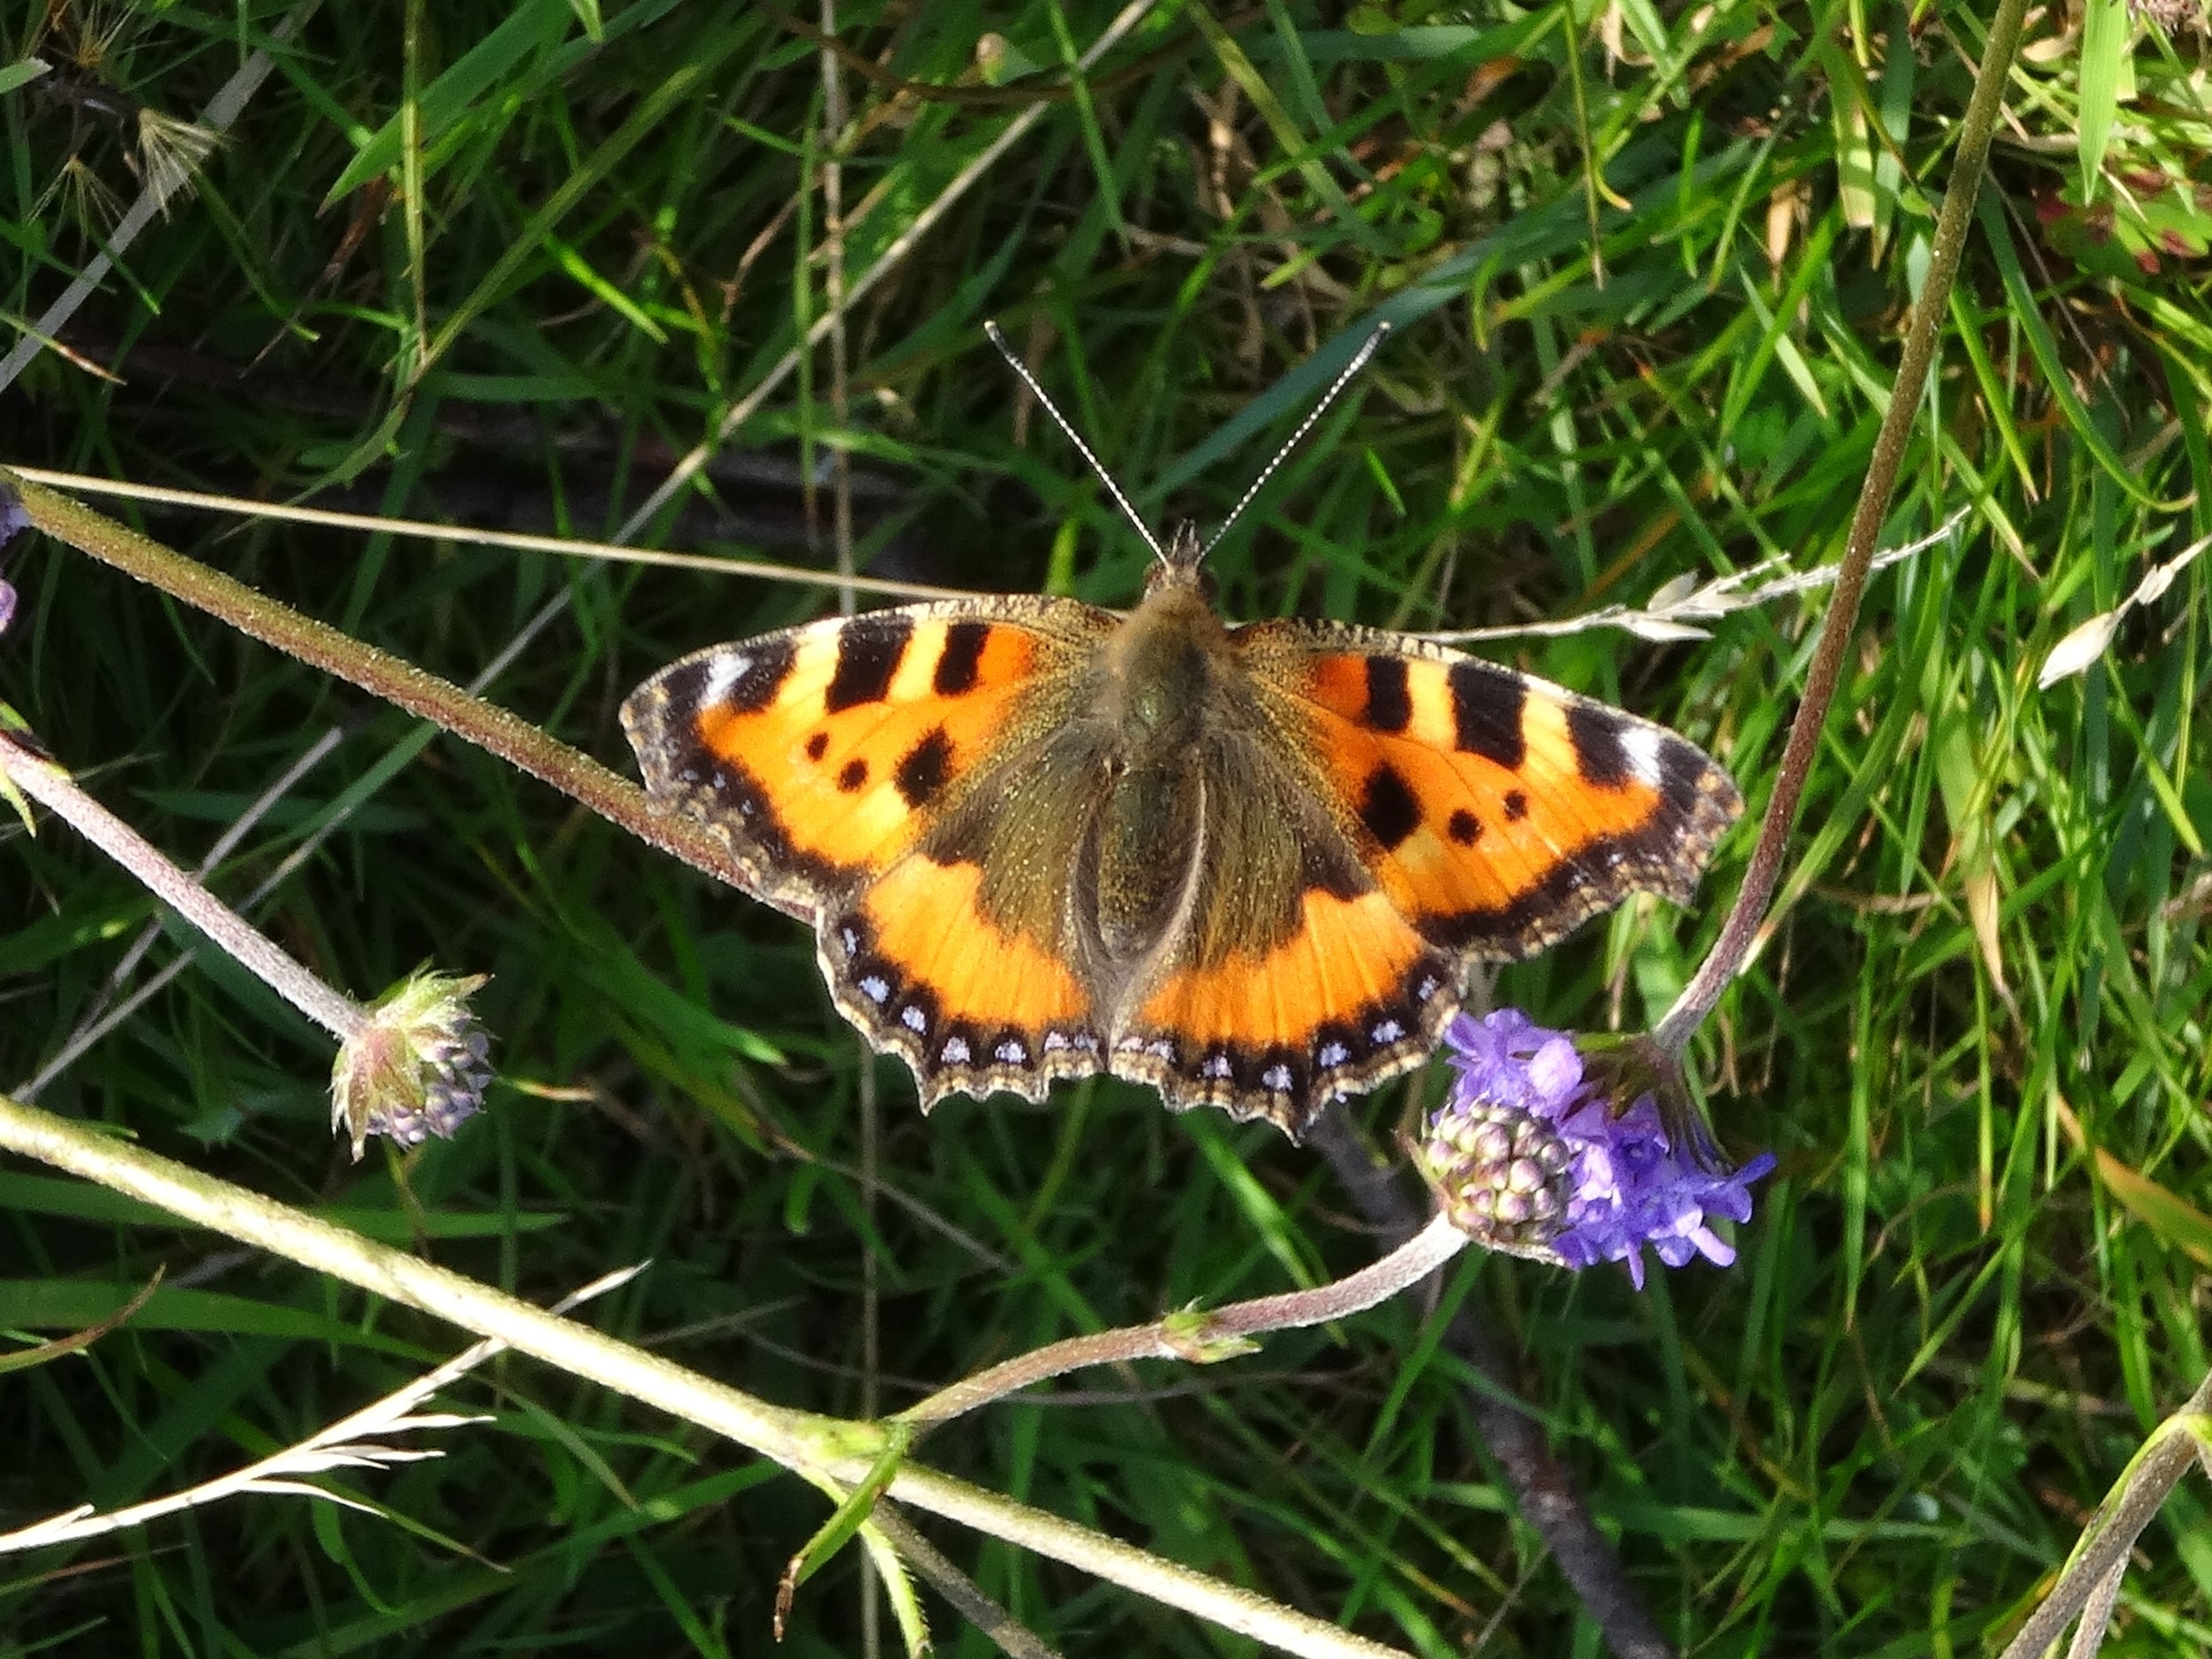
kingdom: Animalia
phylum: Arthropoda
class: Insecta
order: Lepidoptera
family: Nymphalidae
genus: Aglais
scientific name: Aglais urticae
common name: Nældens takvinge
